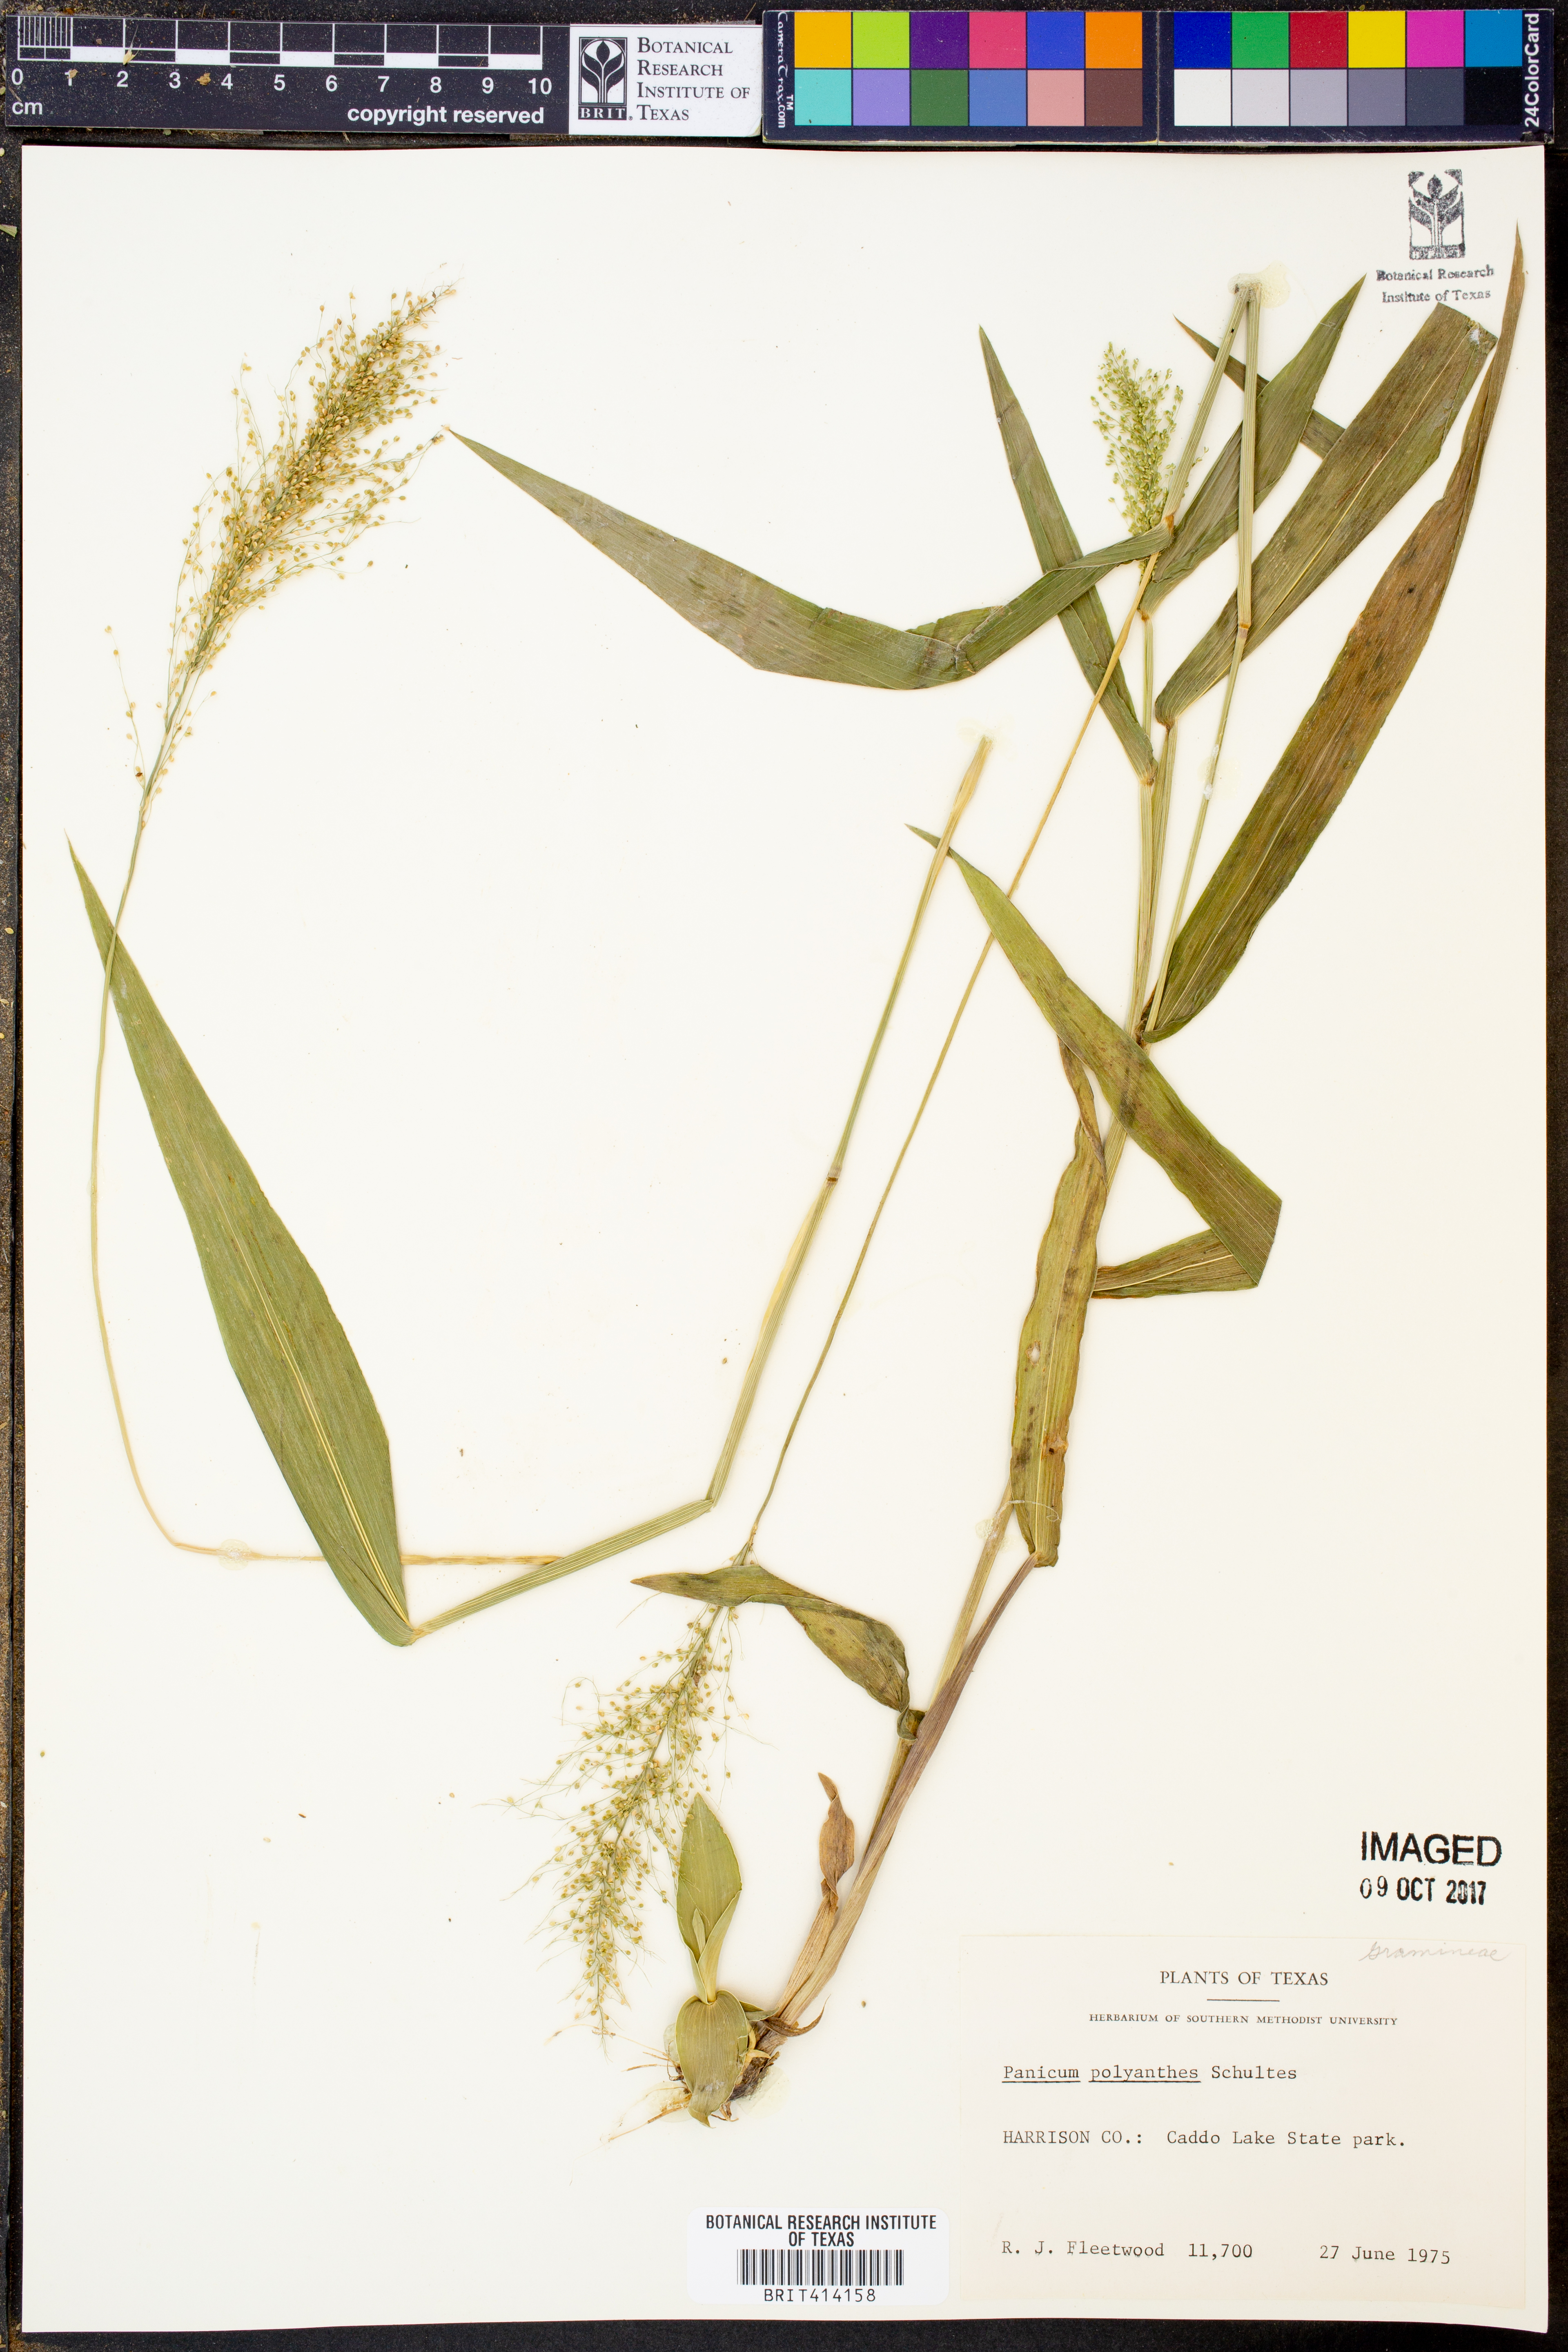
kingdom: Plantae
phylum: Tracheophyta
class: Liliopsida
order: Poales
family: Poaceae
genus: Dichanthelium
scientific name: Dichanthelium polyanthes
